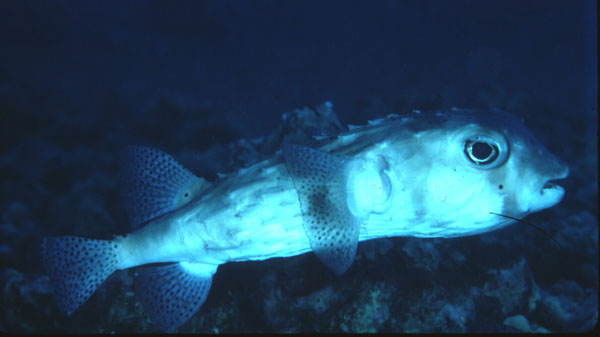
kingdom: Animalia
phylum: Chordata
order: Tetraodontiformes
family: Diodontidae
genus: Chilomycterus
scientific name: Chilomycterus reticulatus
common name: Spotfin burrfish
